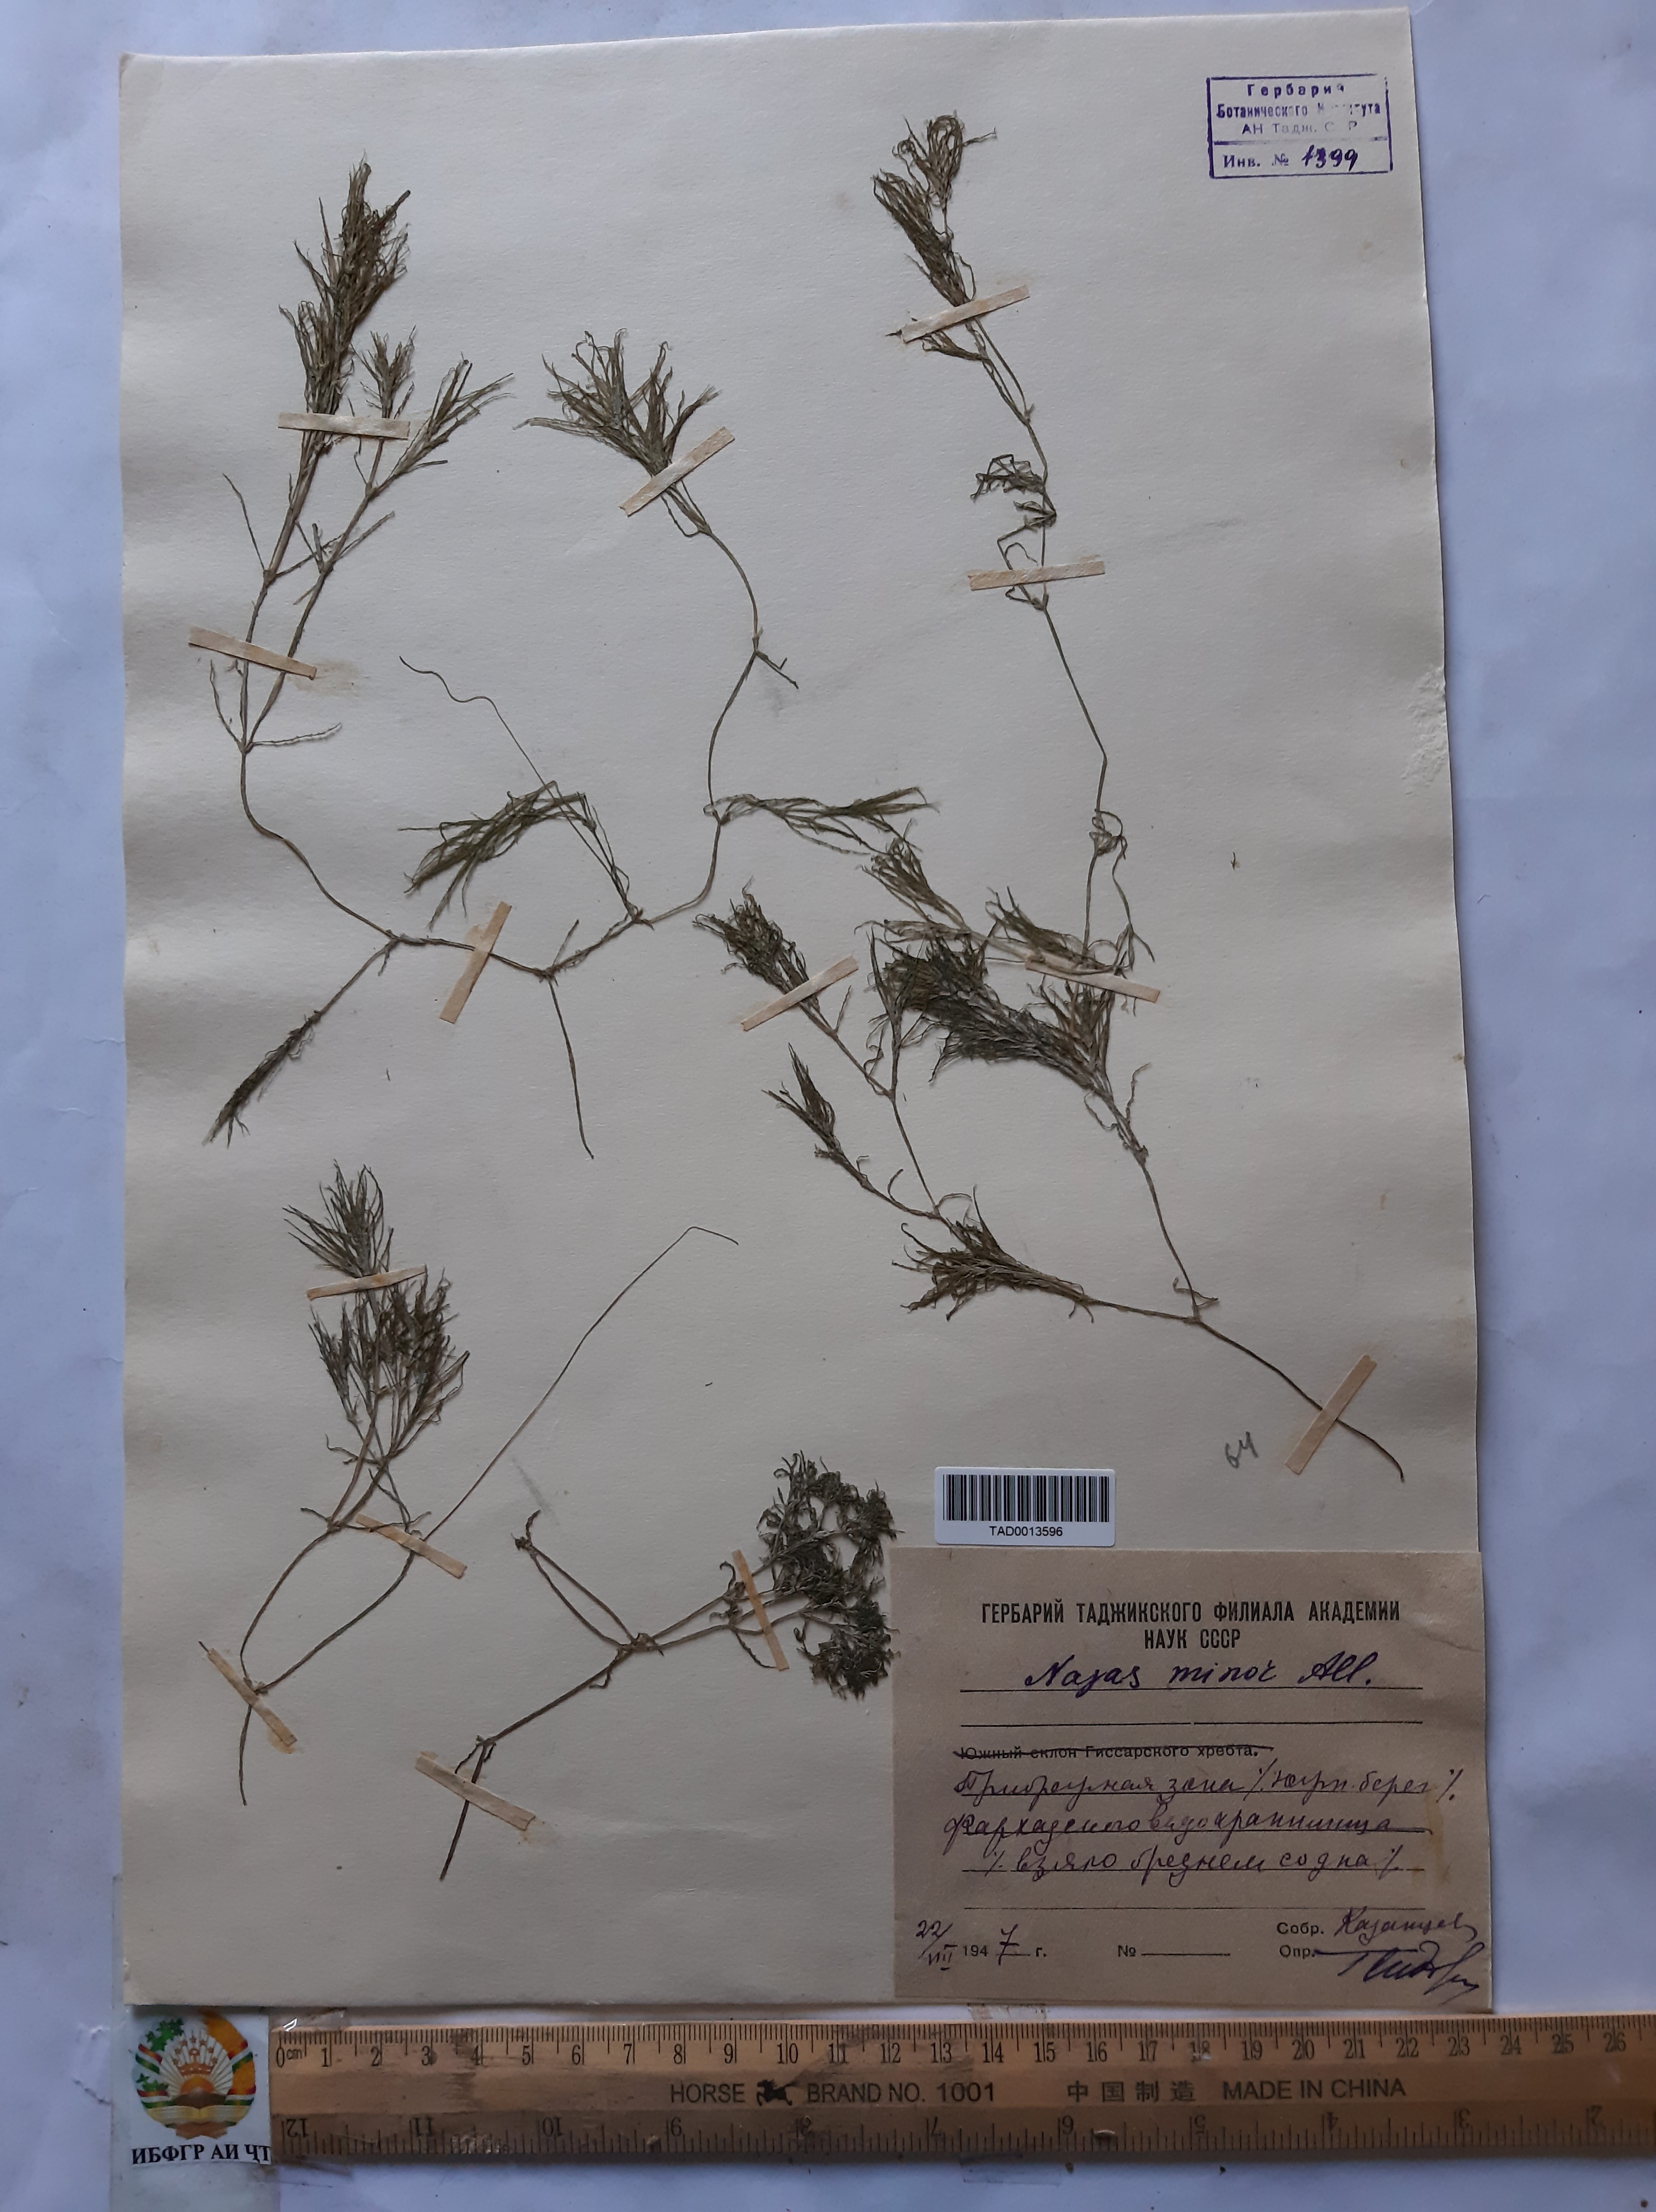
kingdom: Plantae
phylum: Tracheophyta
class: Liliopsida
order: Alismatales
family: Hydrocharitaceae
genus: Najas
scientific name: Najas minor
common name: Brittle naiad
